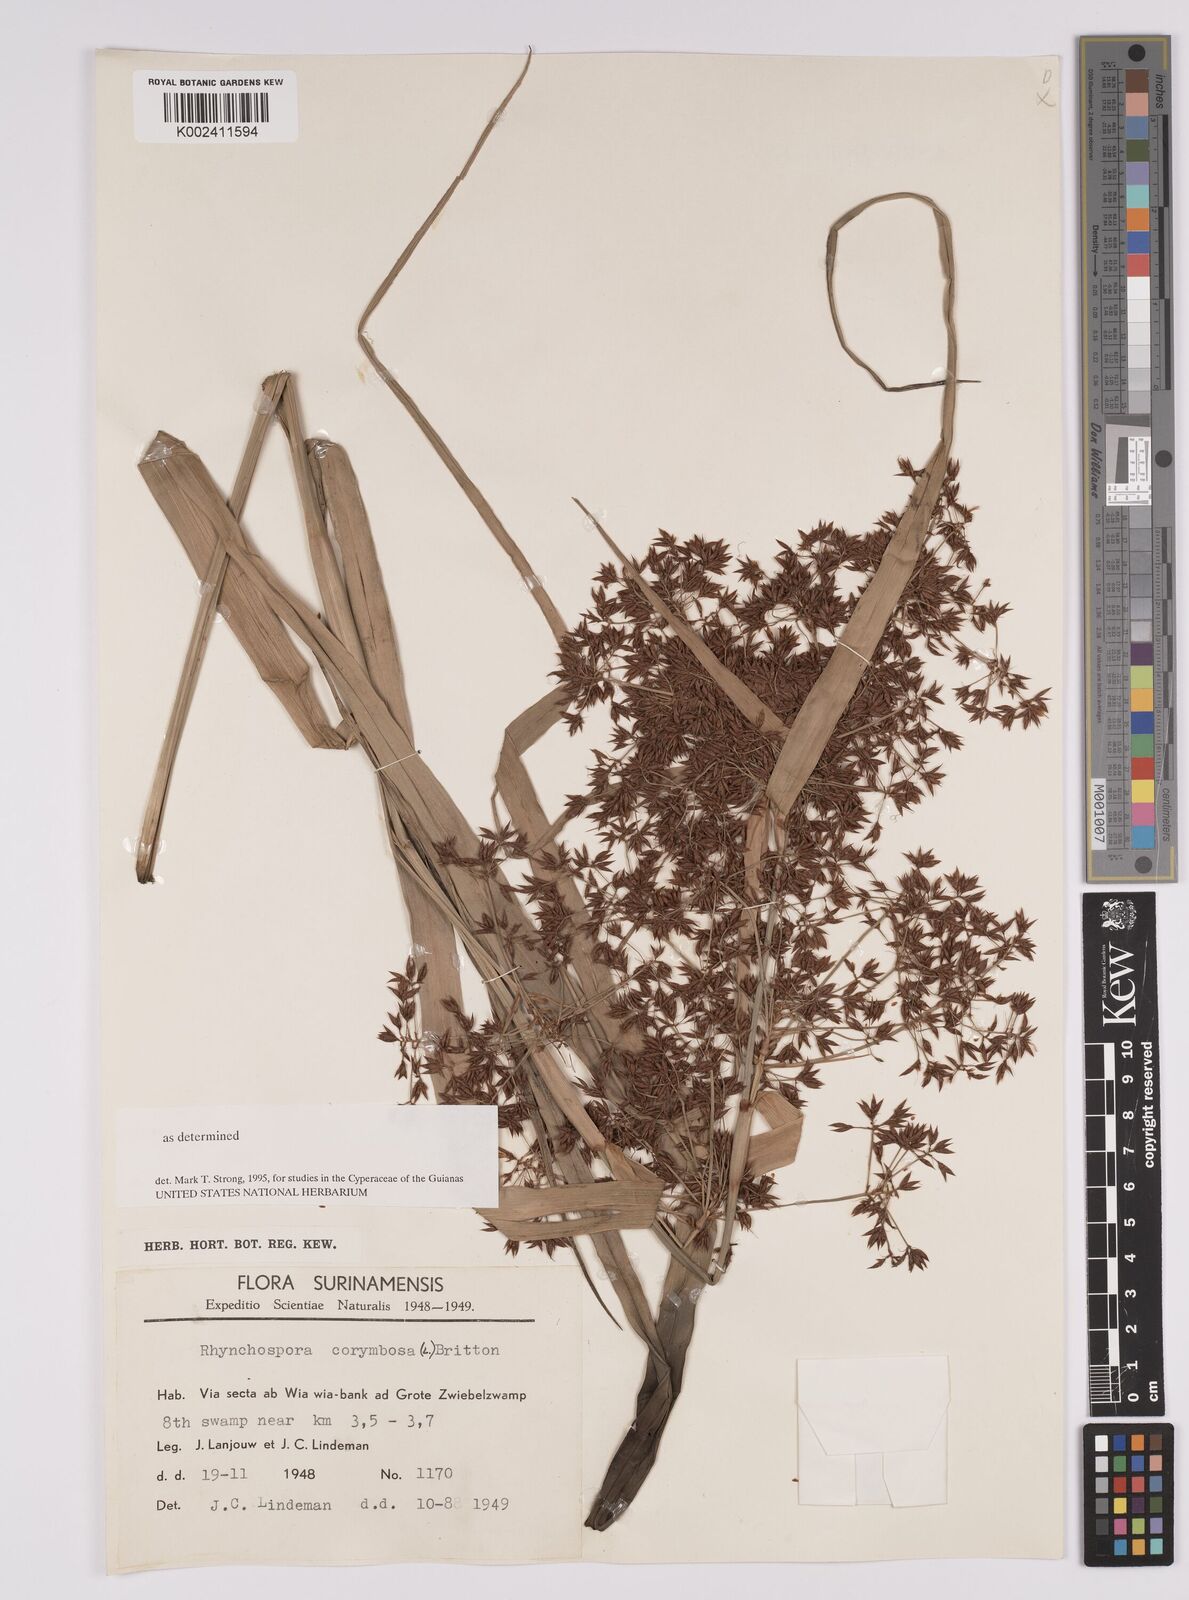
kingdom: Plantae
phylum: Tracheophyta
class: Liliopsida
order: Poales
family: Cyperaceae
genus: Rhynchospora
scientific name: Rhynchospora corymbosa
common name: Golden beak sedge
